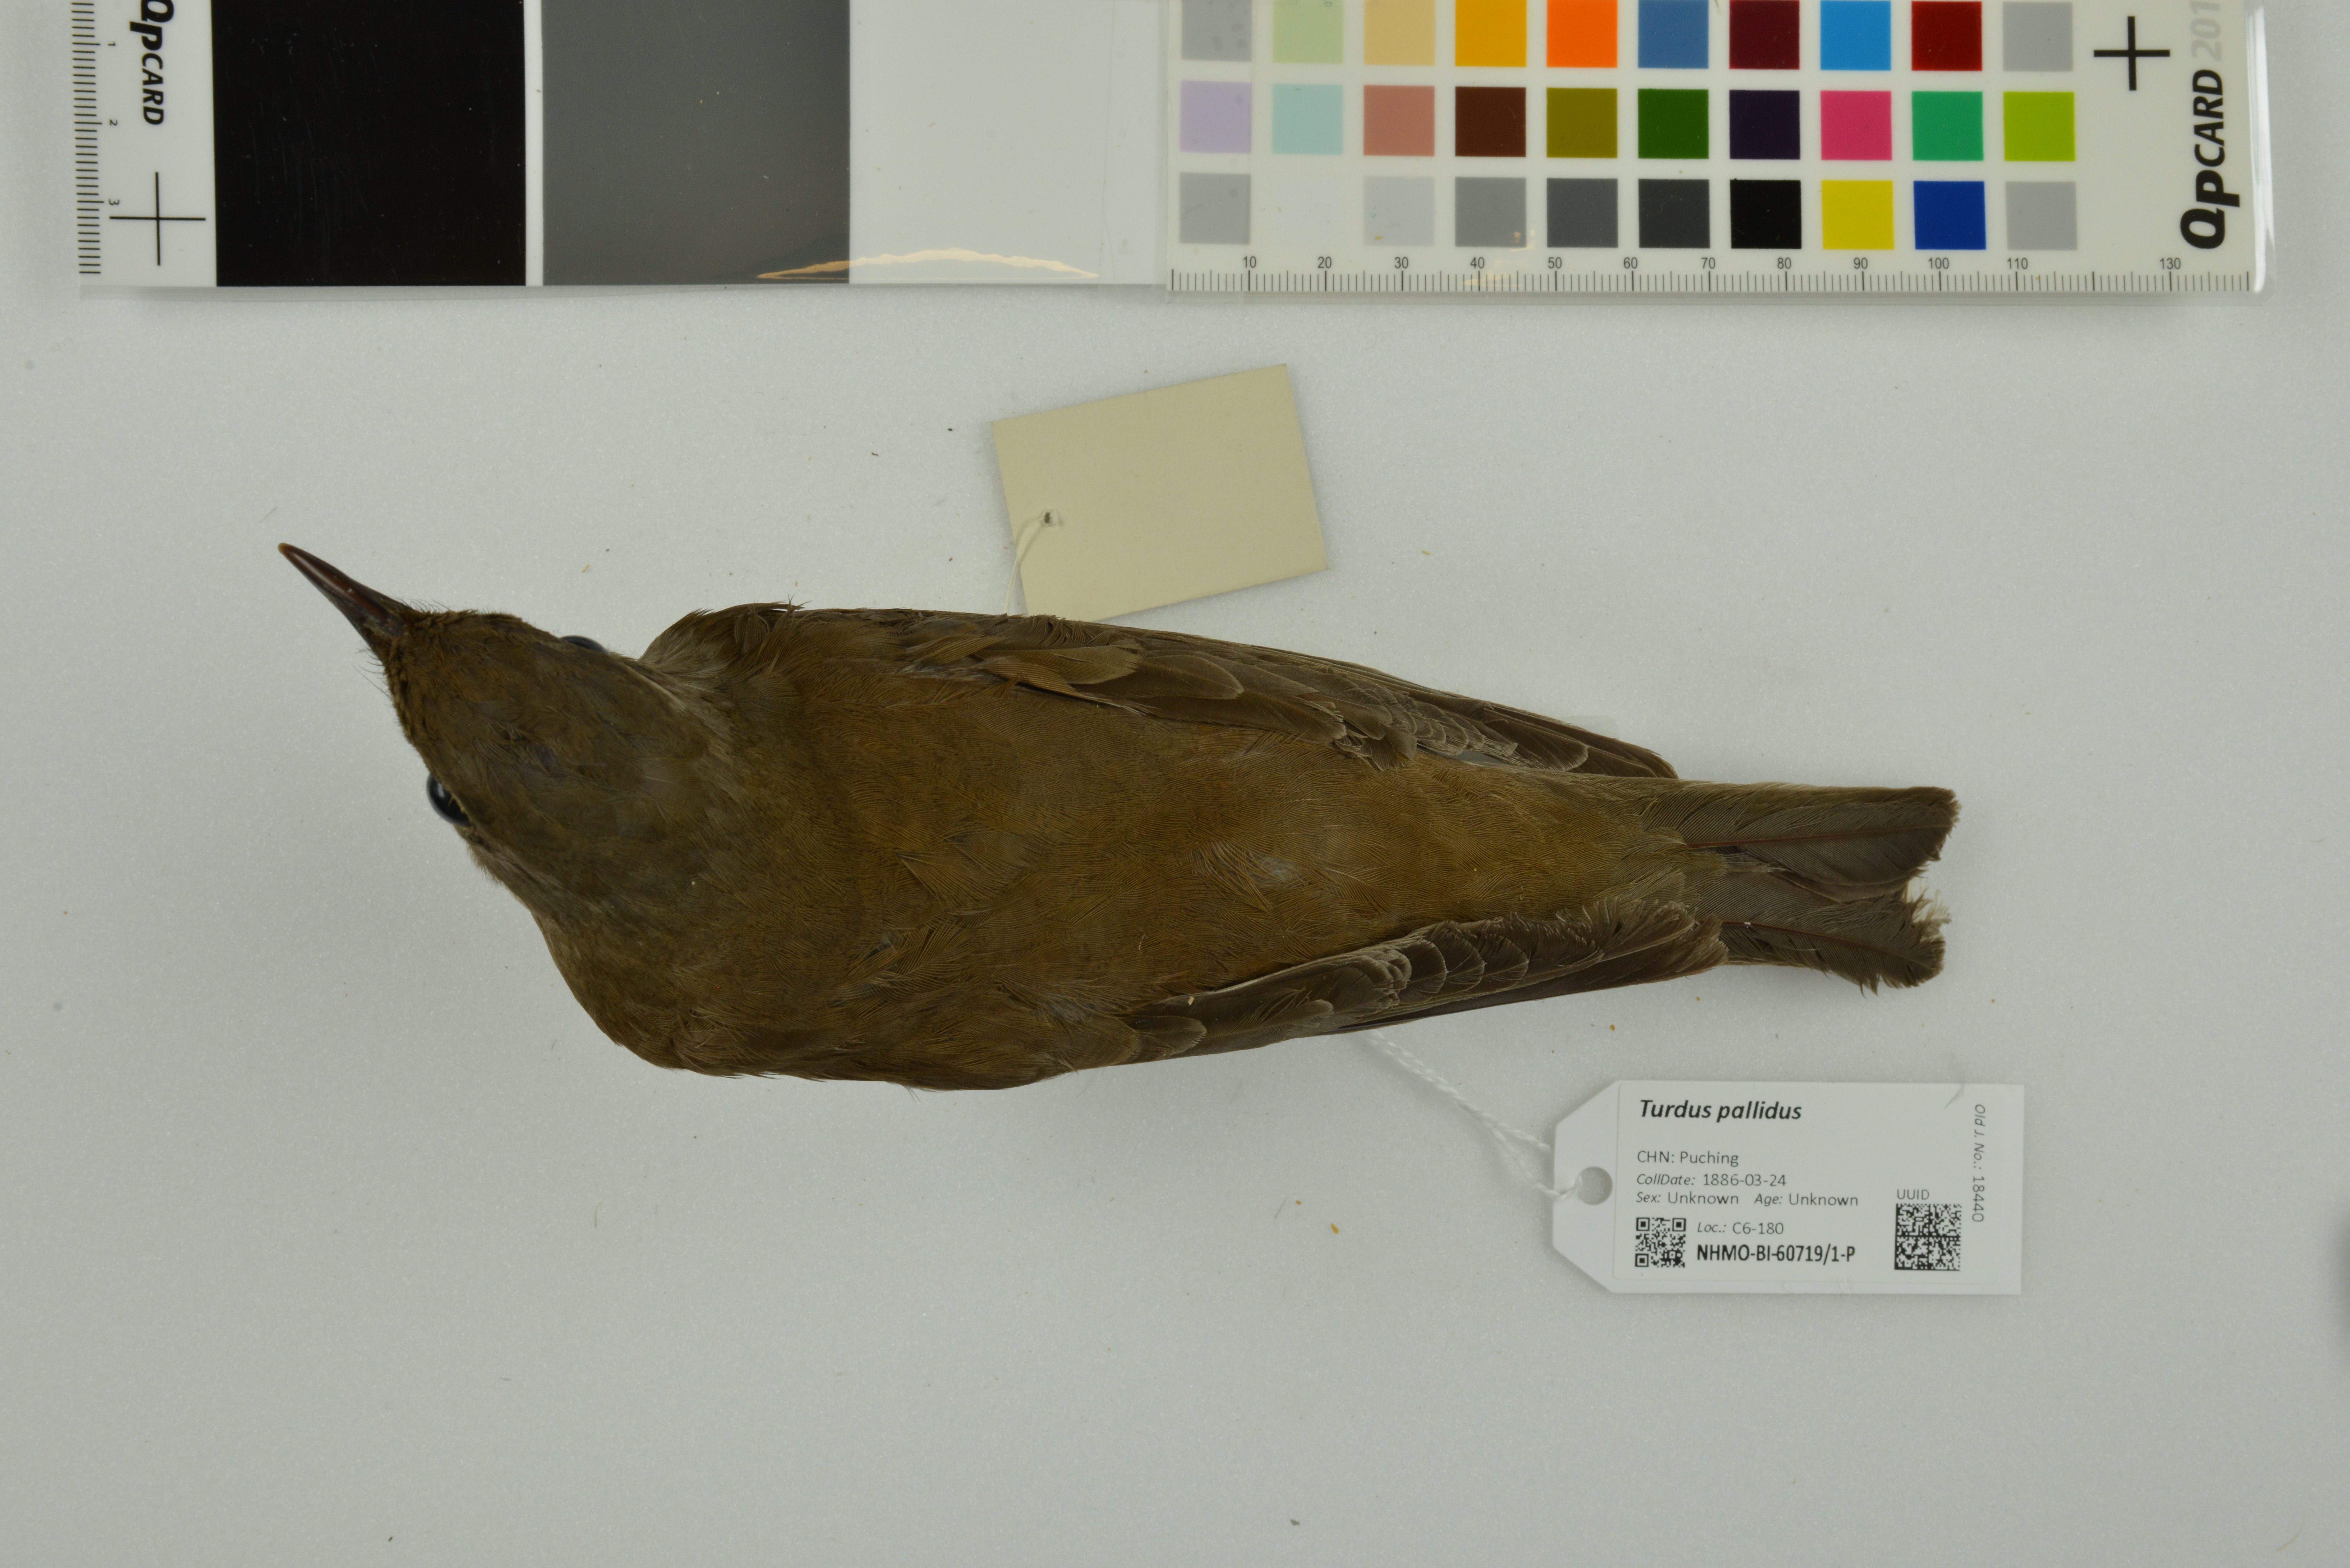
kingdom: Animalia
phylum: Chordata
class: Aves
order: Passeriformes
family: Turdidae
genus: Turdus
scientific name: Turdus pallidus
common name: Pale thrush
